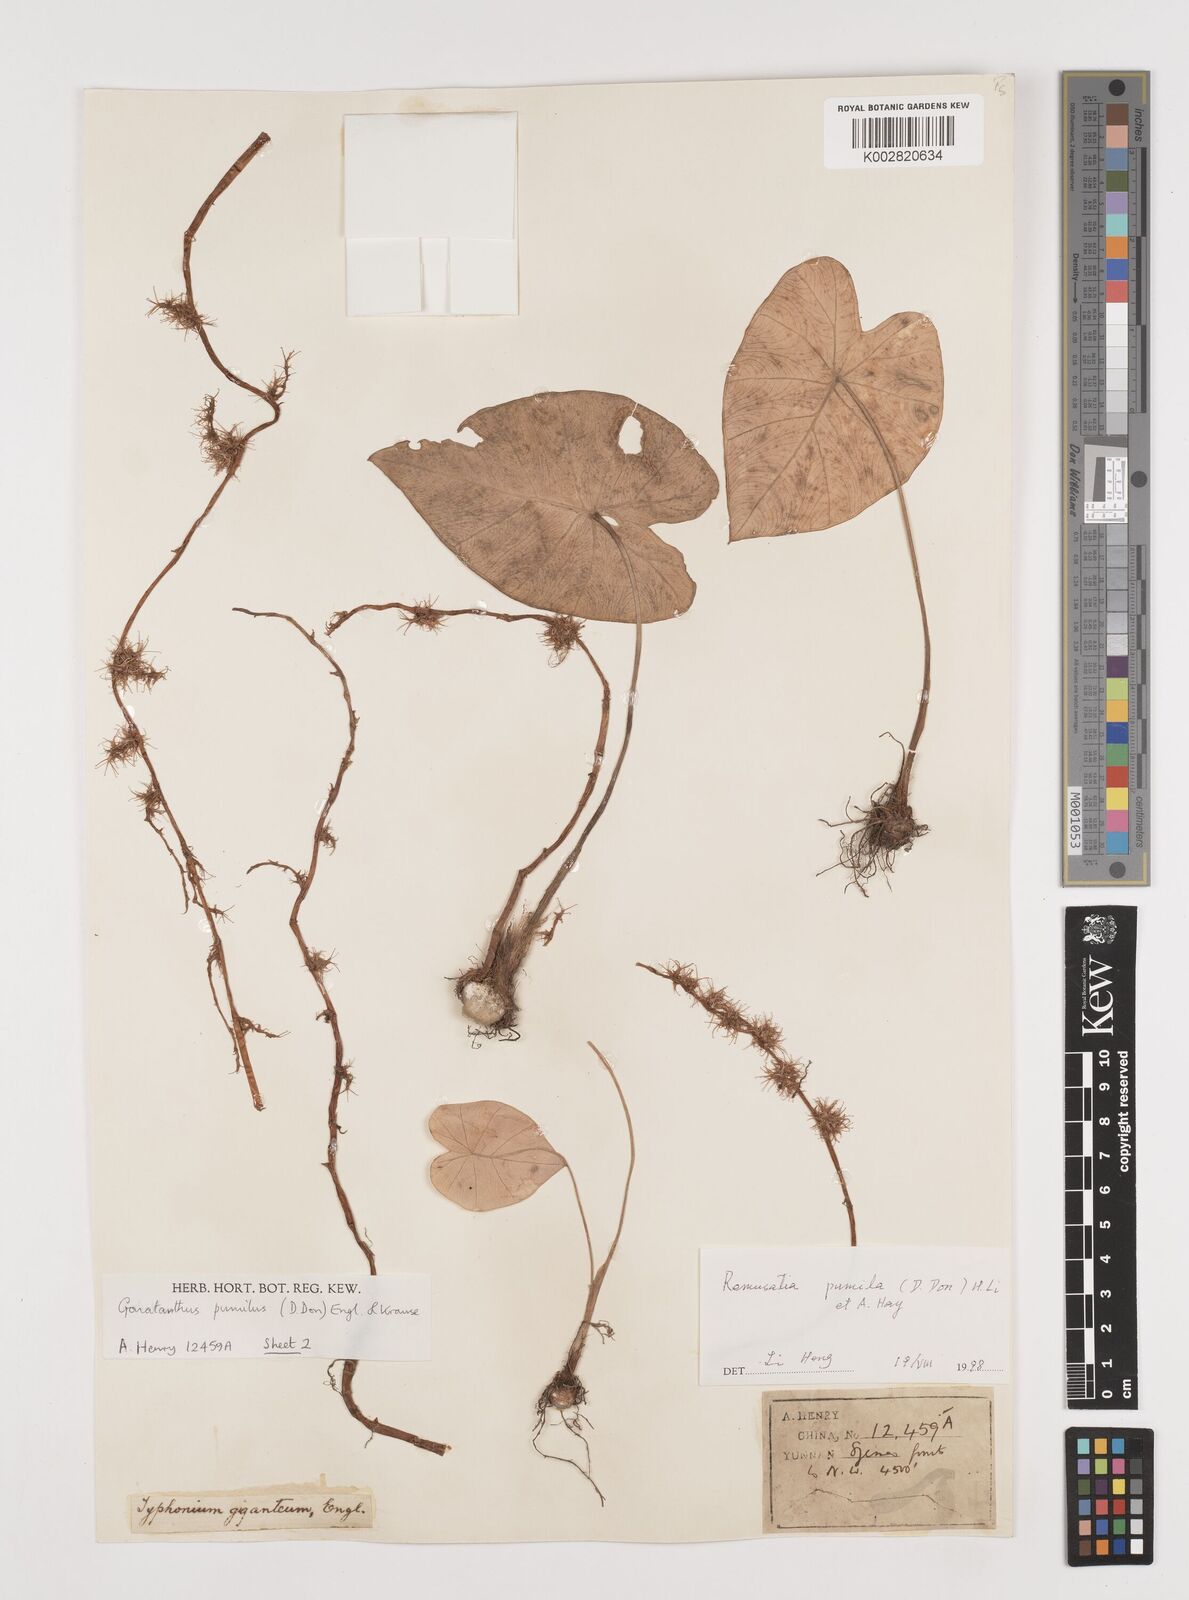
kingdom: Plantae
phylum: Tracheophyta
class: Liliopsida
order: Alismatales
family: Araceae
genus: Remusatia
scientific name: Remusatia pumila
